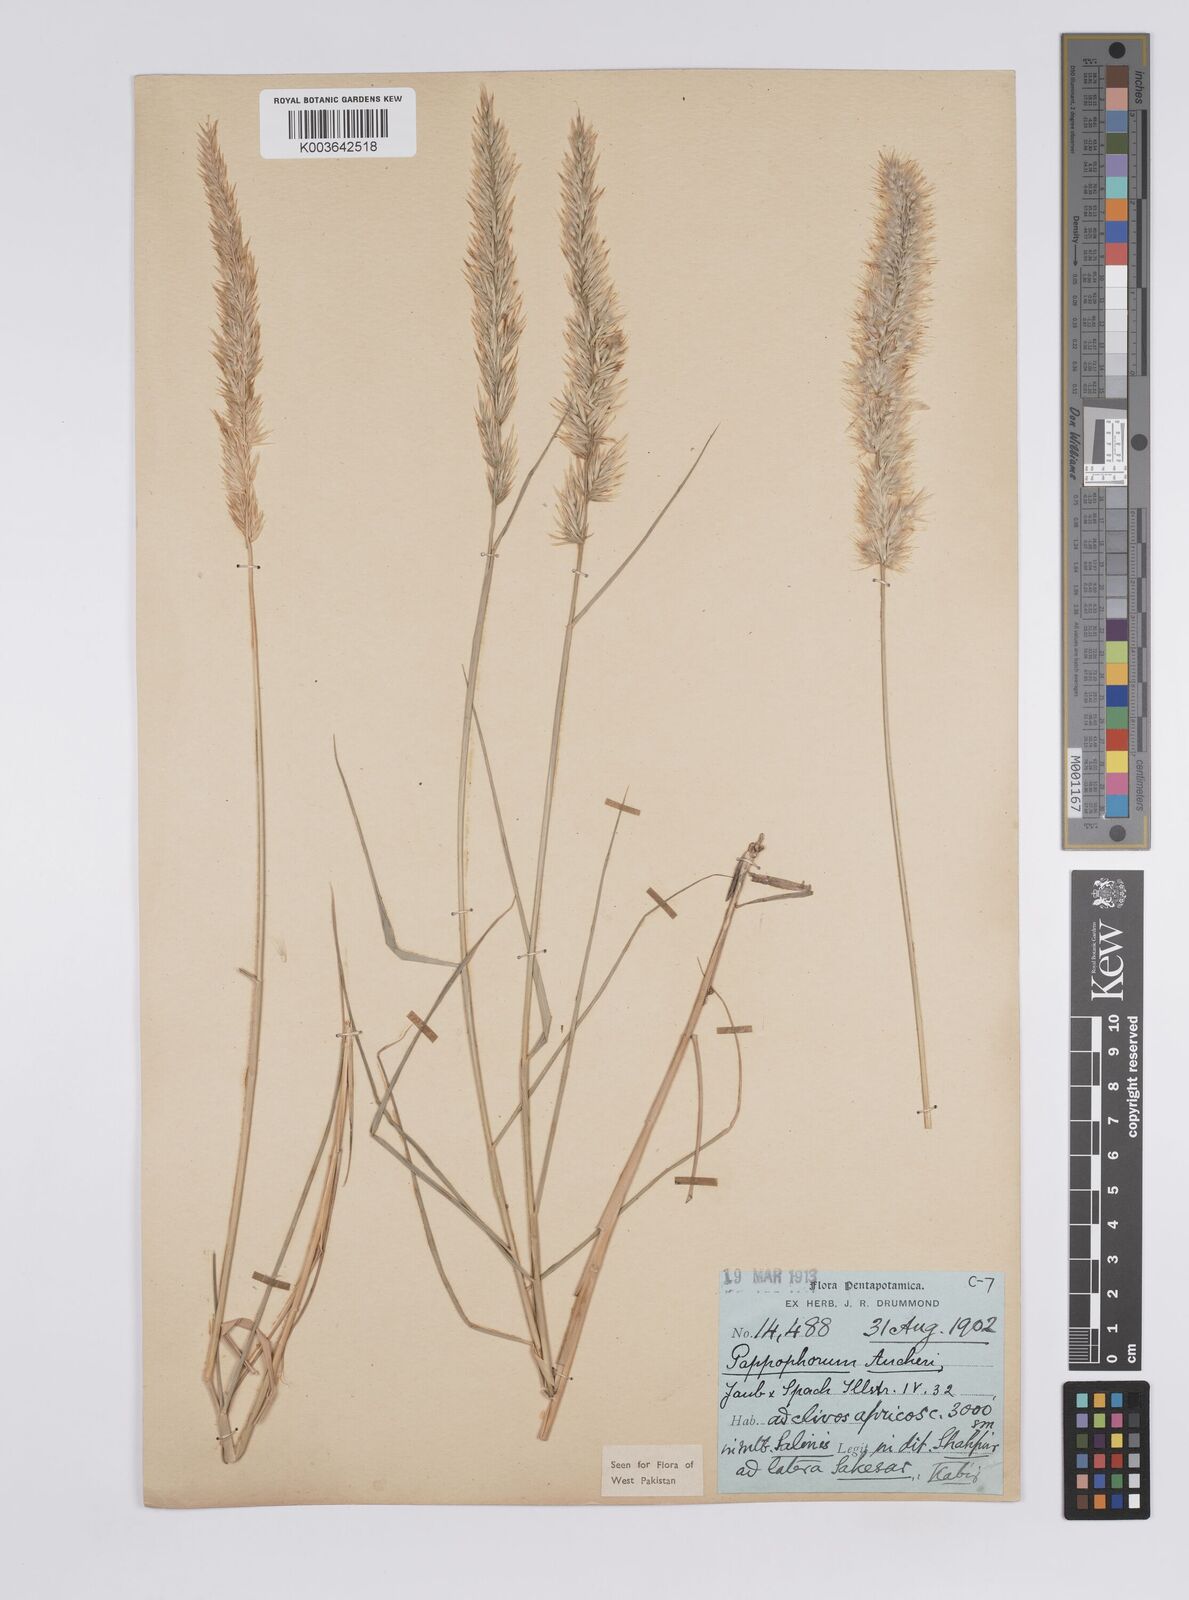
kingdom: Plantae
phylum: Tracheophyta
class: Liliopsida
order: Poales
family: Poaceae
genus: Enneapogon
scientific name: Enneapogon persicus
